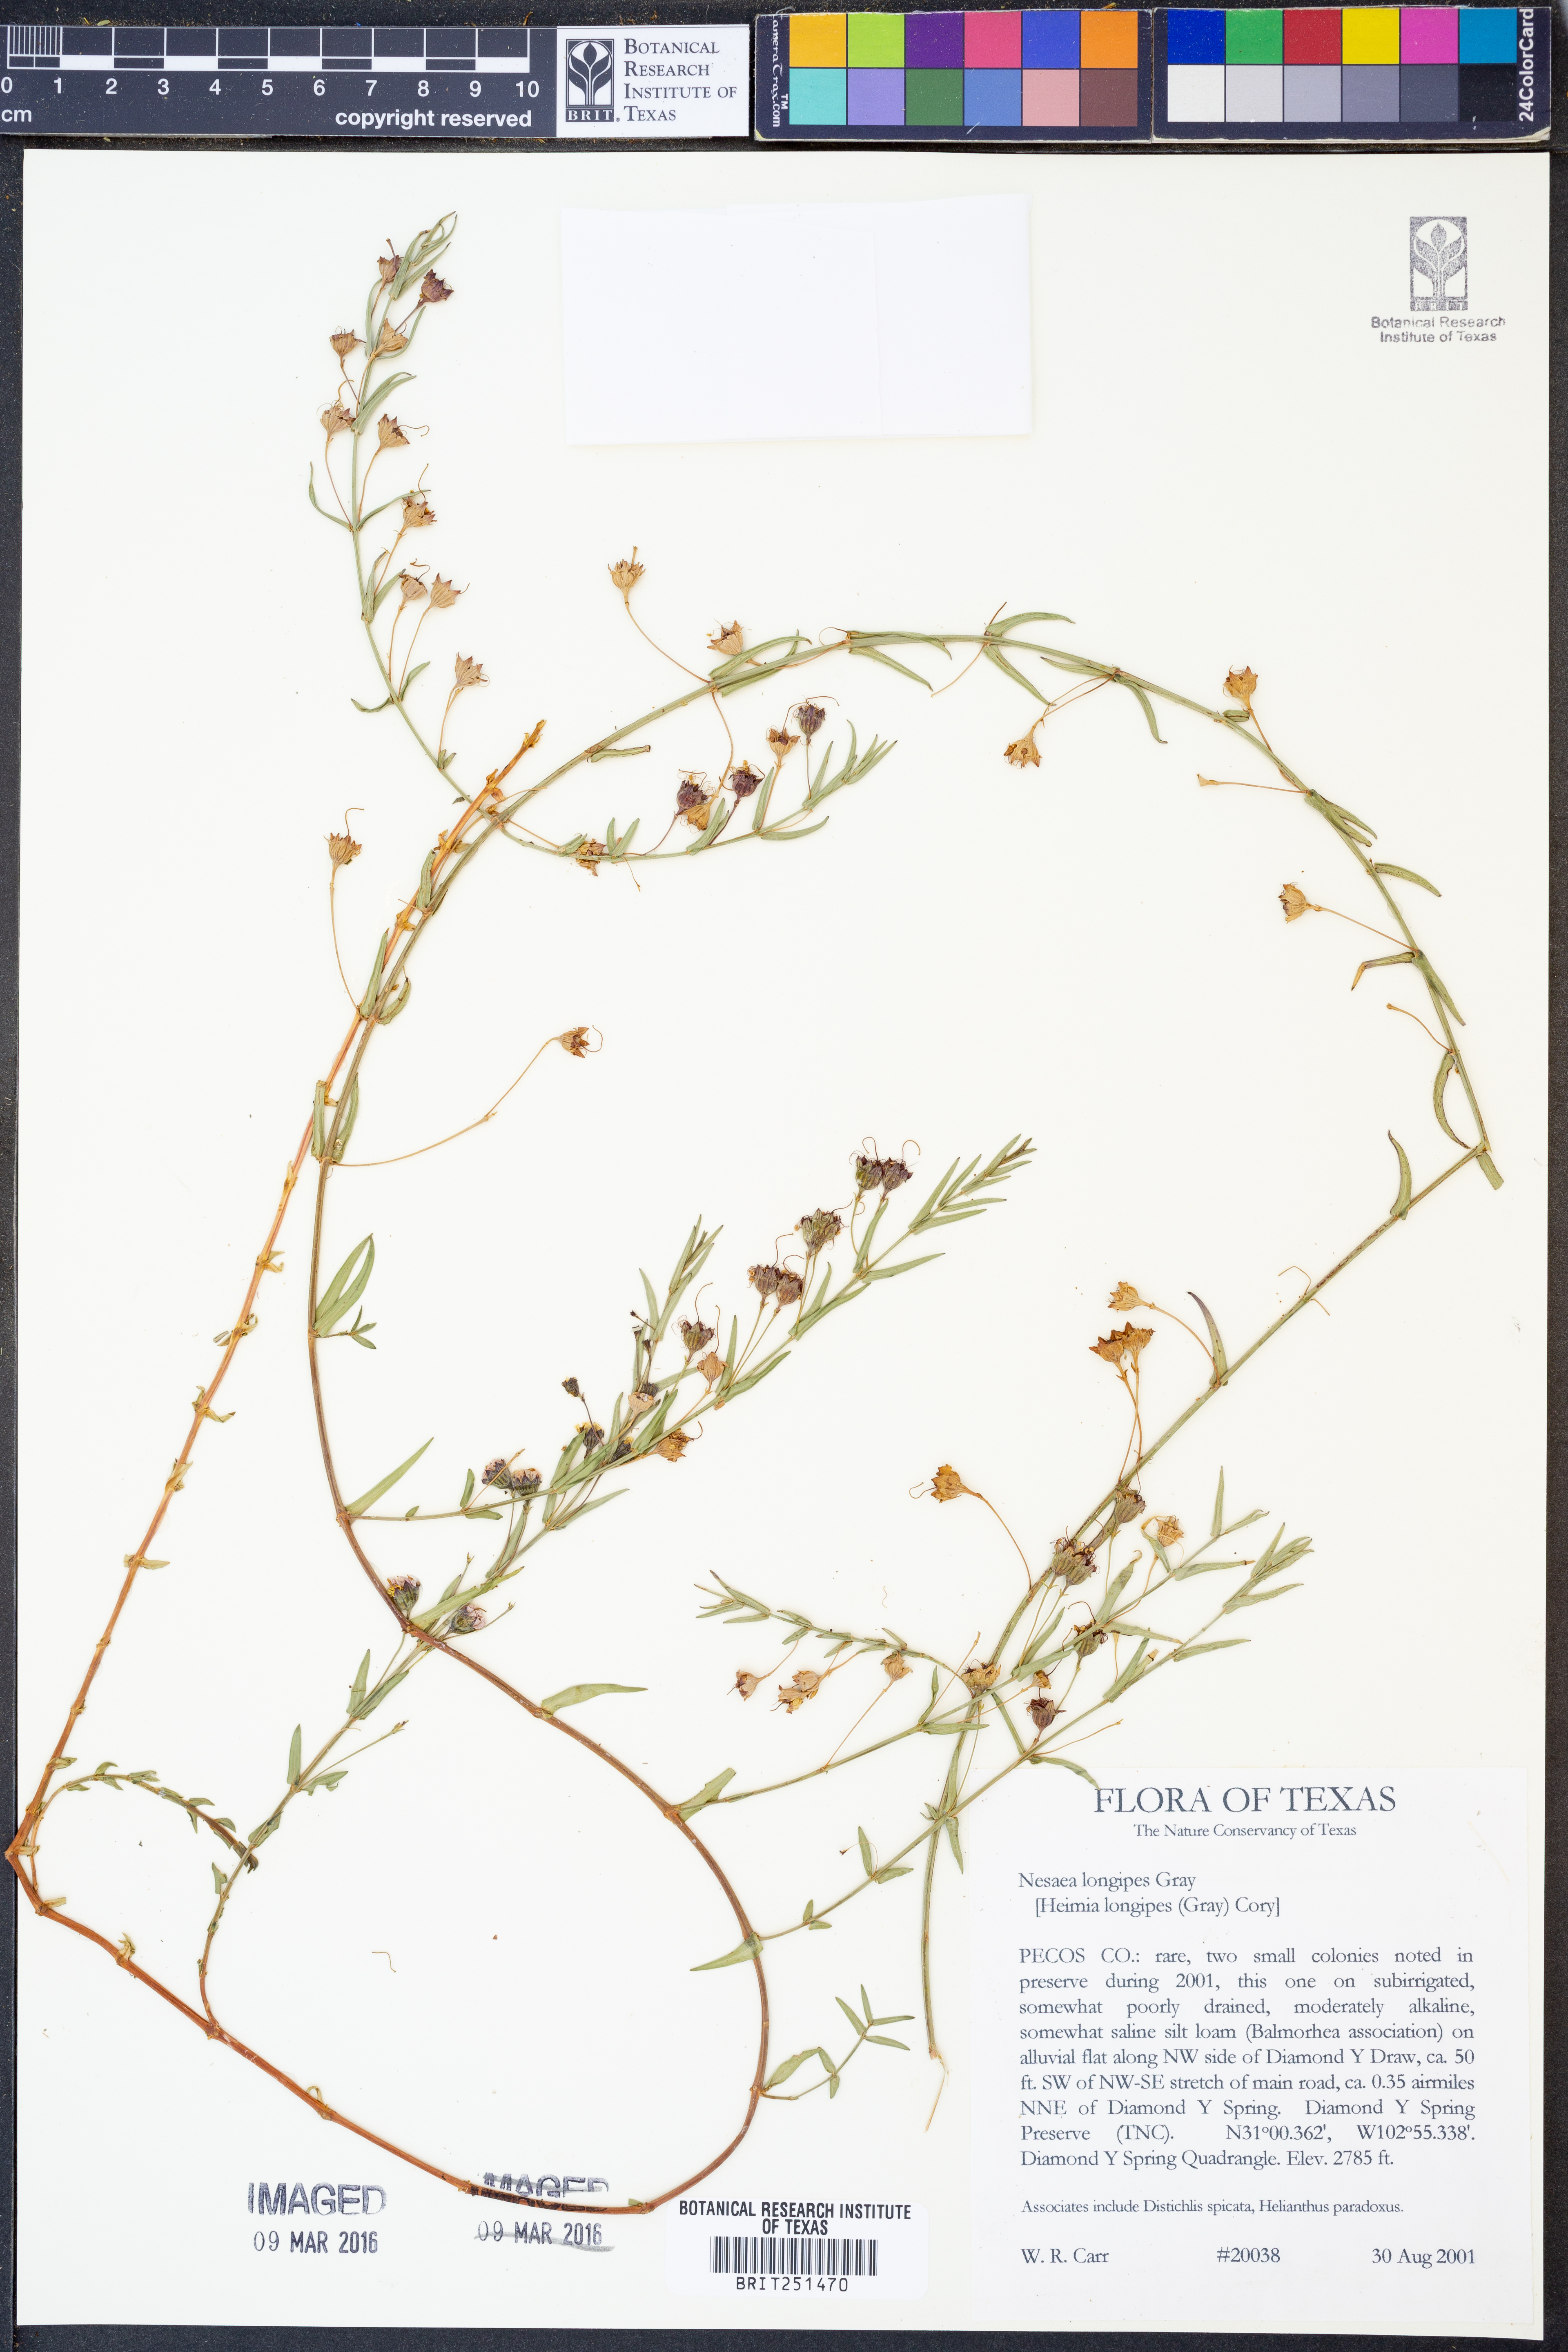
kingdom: Plantae
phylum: Tracheophyta
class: Magnoliopsida
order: Myrtales
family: Lythraceae
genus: Ammannia
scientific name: Ammannia grayi
